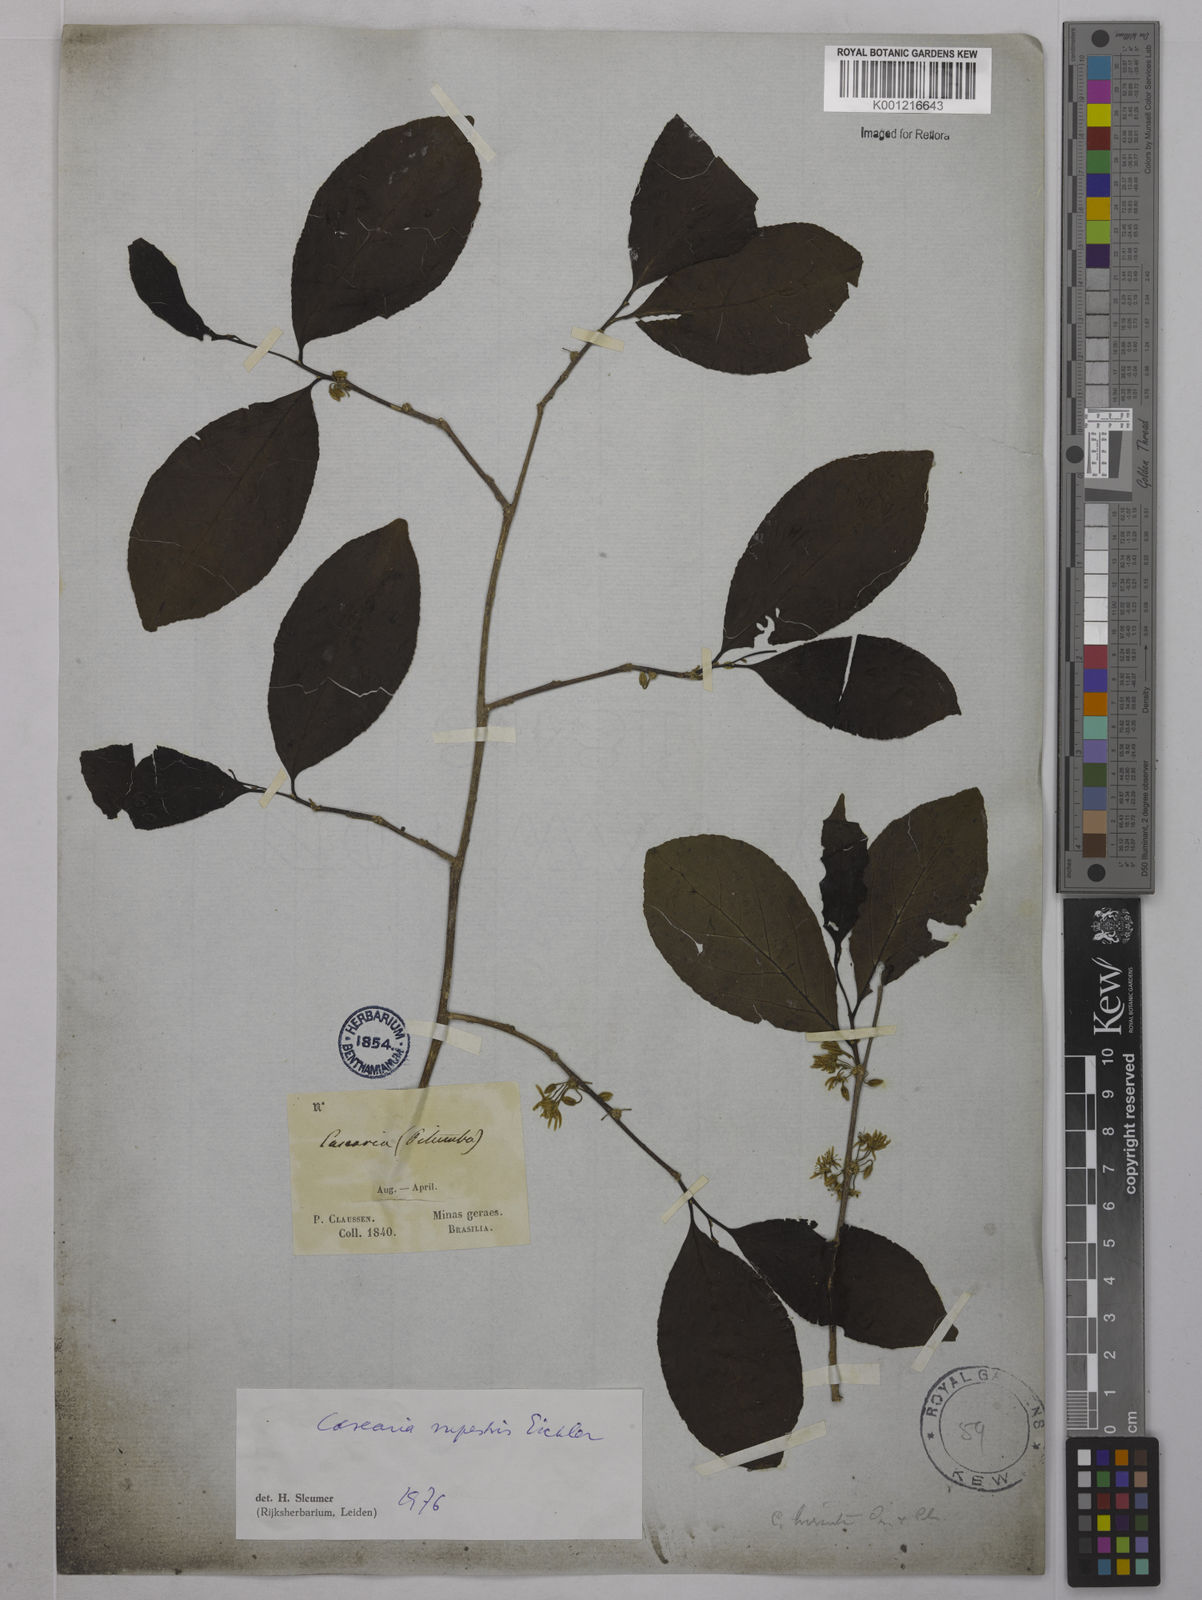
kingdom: Plantae
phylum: Tracheophyta
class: Magnoliopsida
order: Malpighiales
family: Salicaceae
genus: Casearia
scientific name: Casearia rupestris
